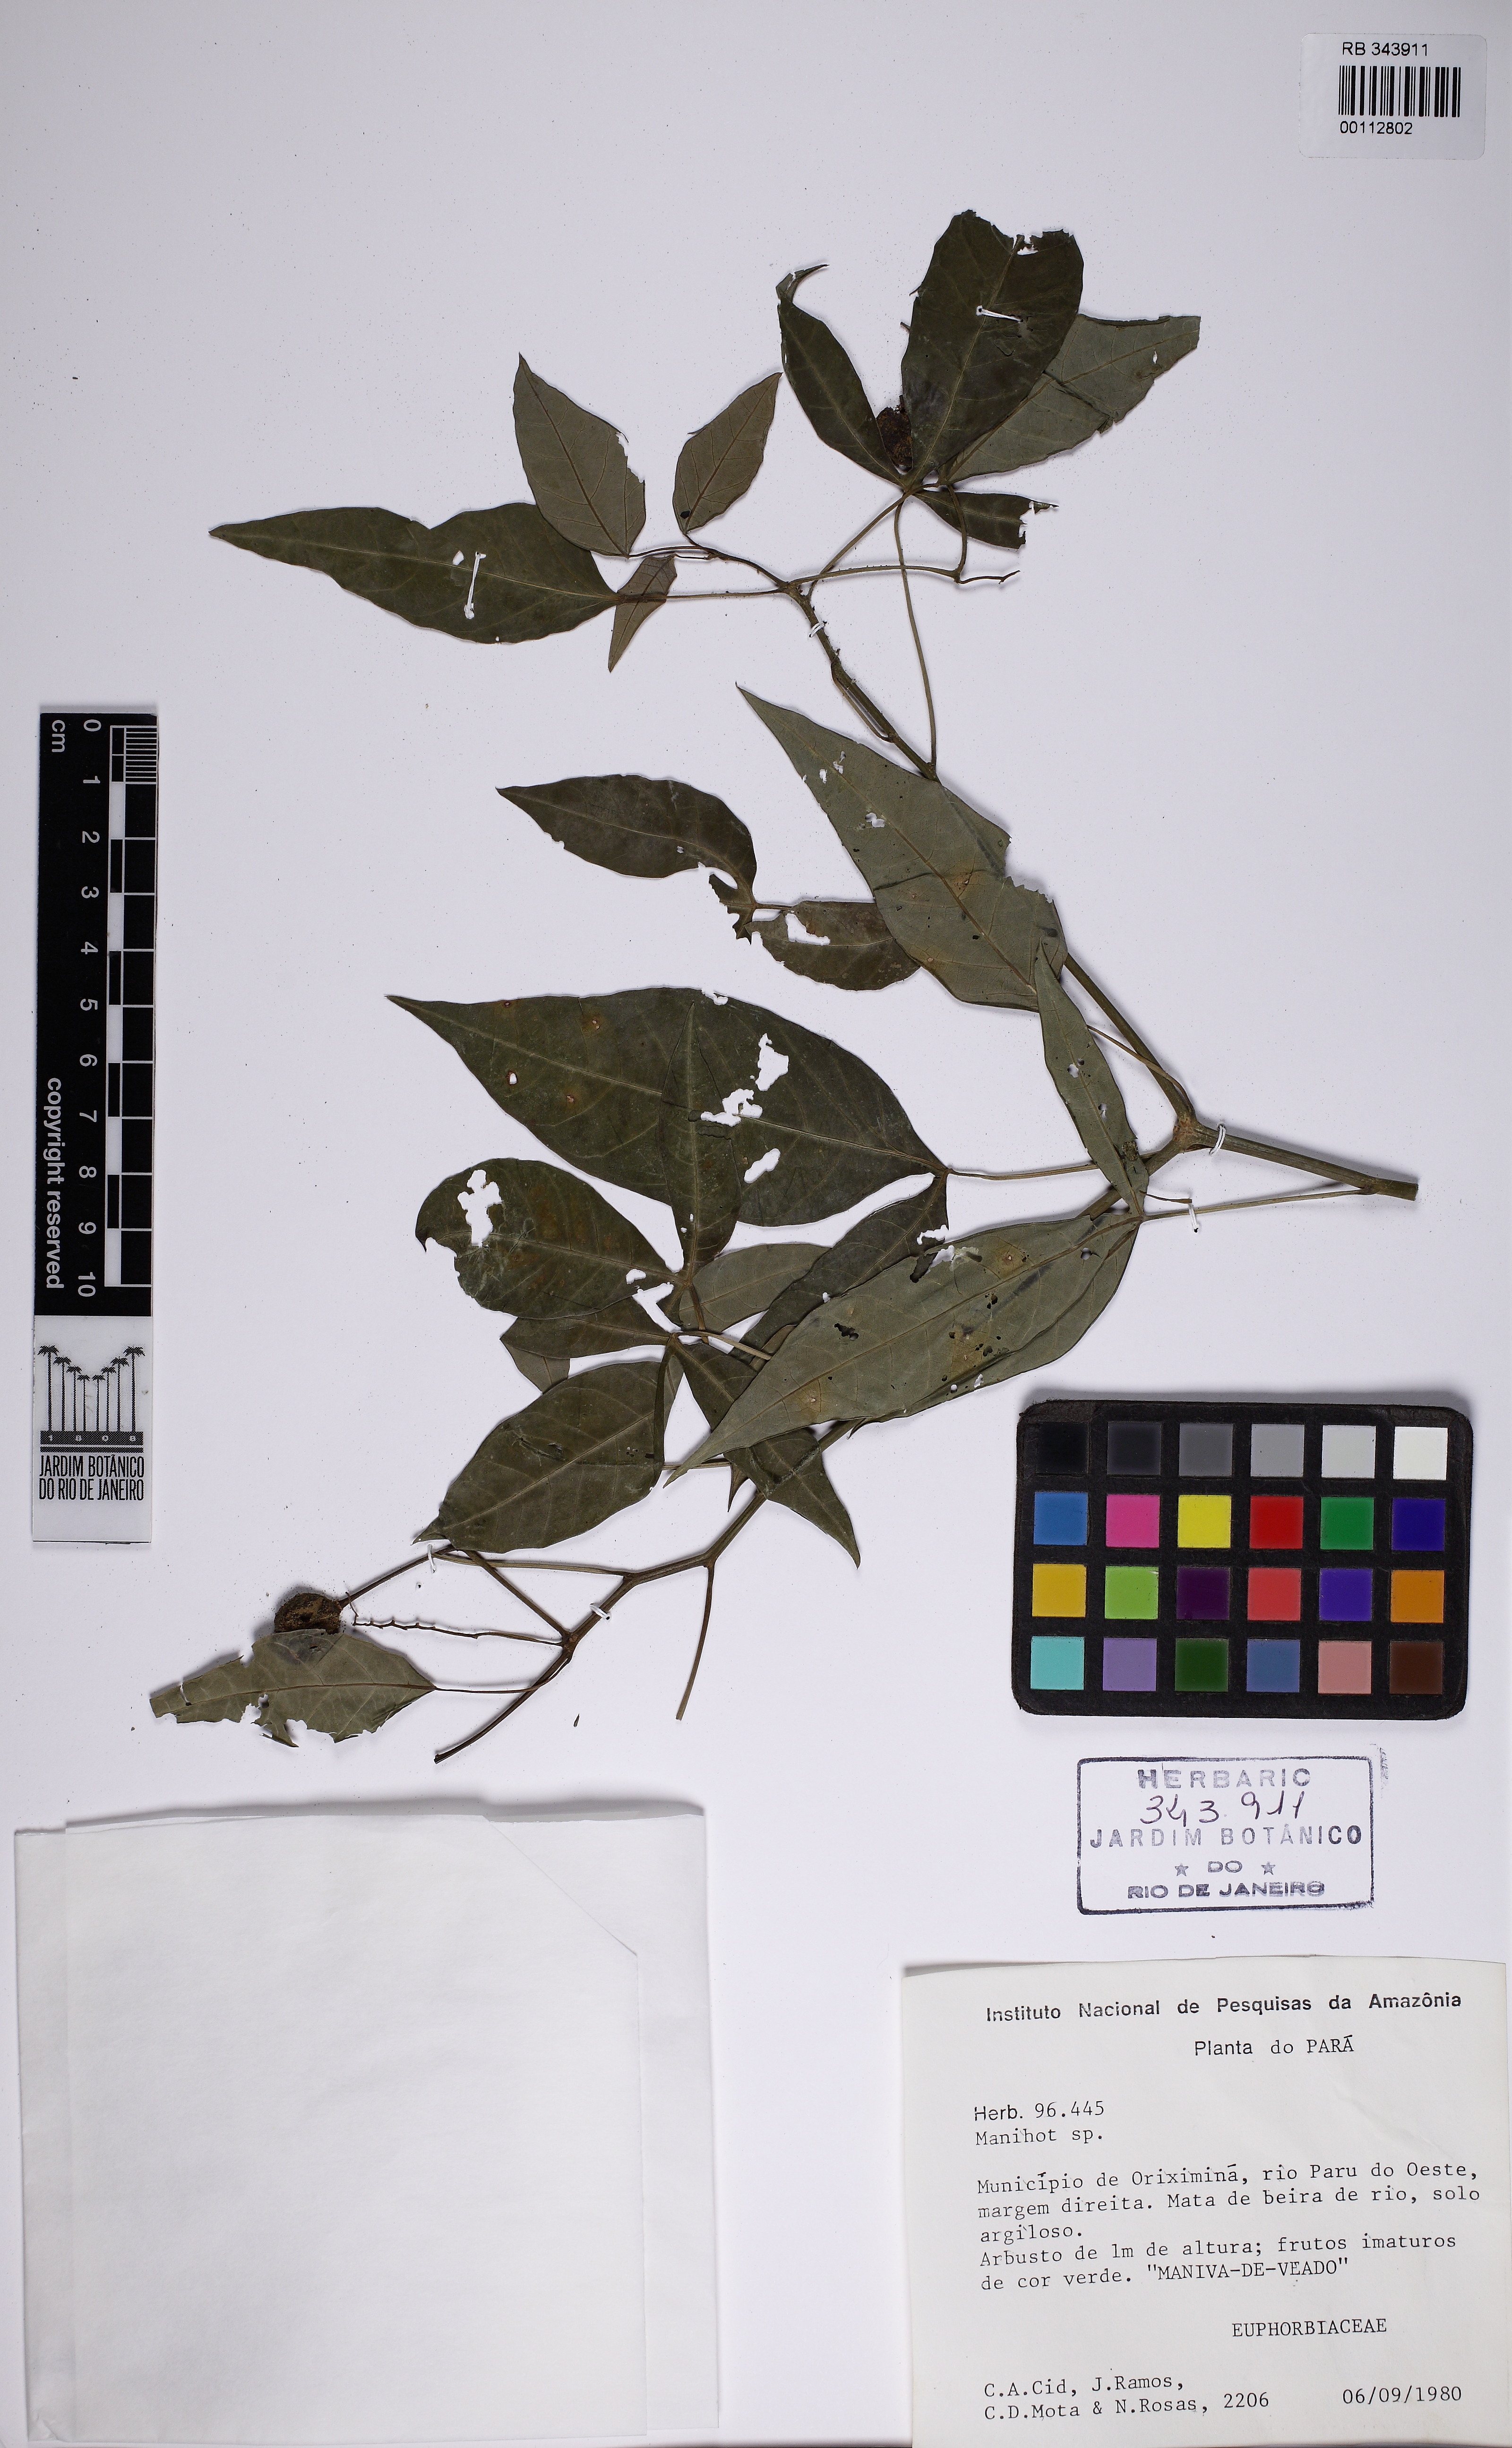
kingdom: Plantae
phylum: Tracheophyta
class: Magnoliopsida
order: Malpighiales
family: Euphorbiaceae
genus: Manihot
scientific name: Manihot brachyloba
